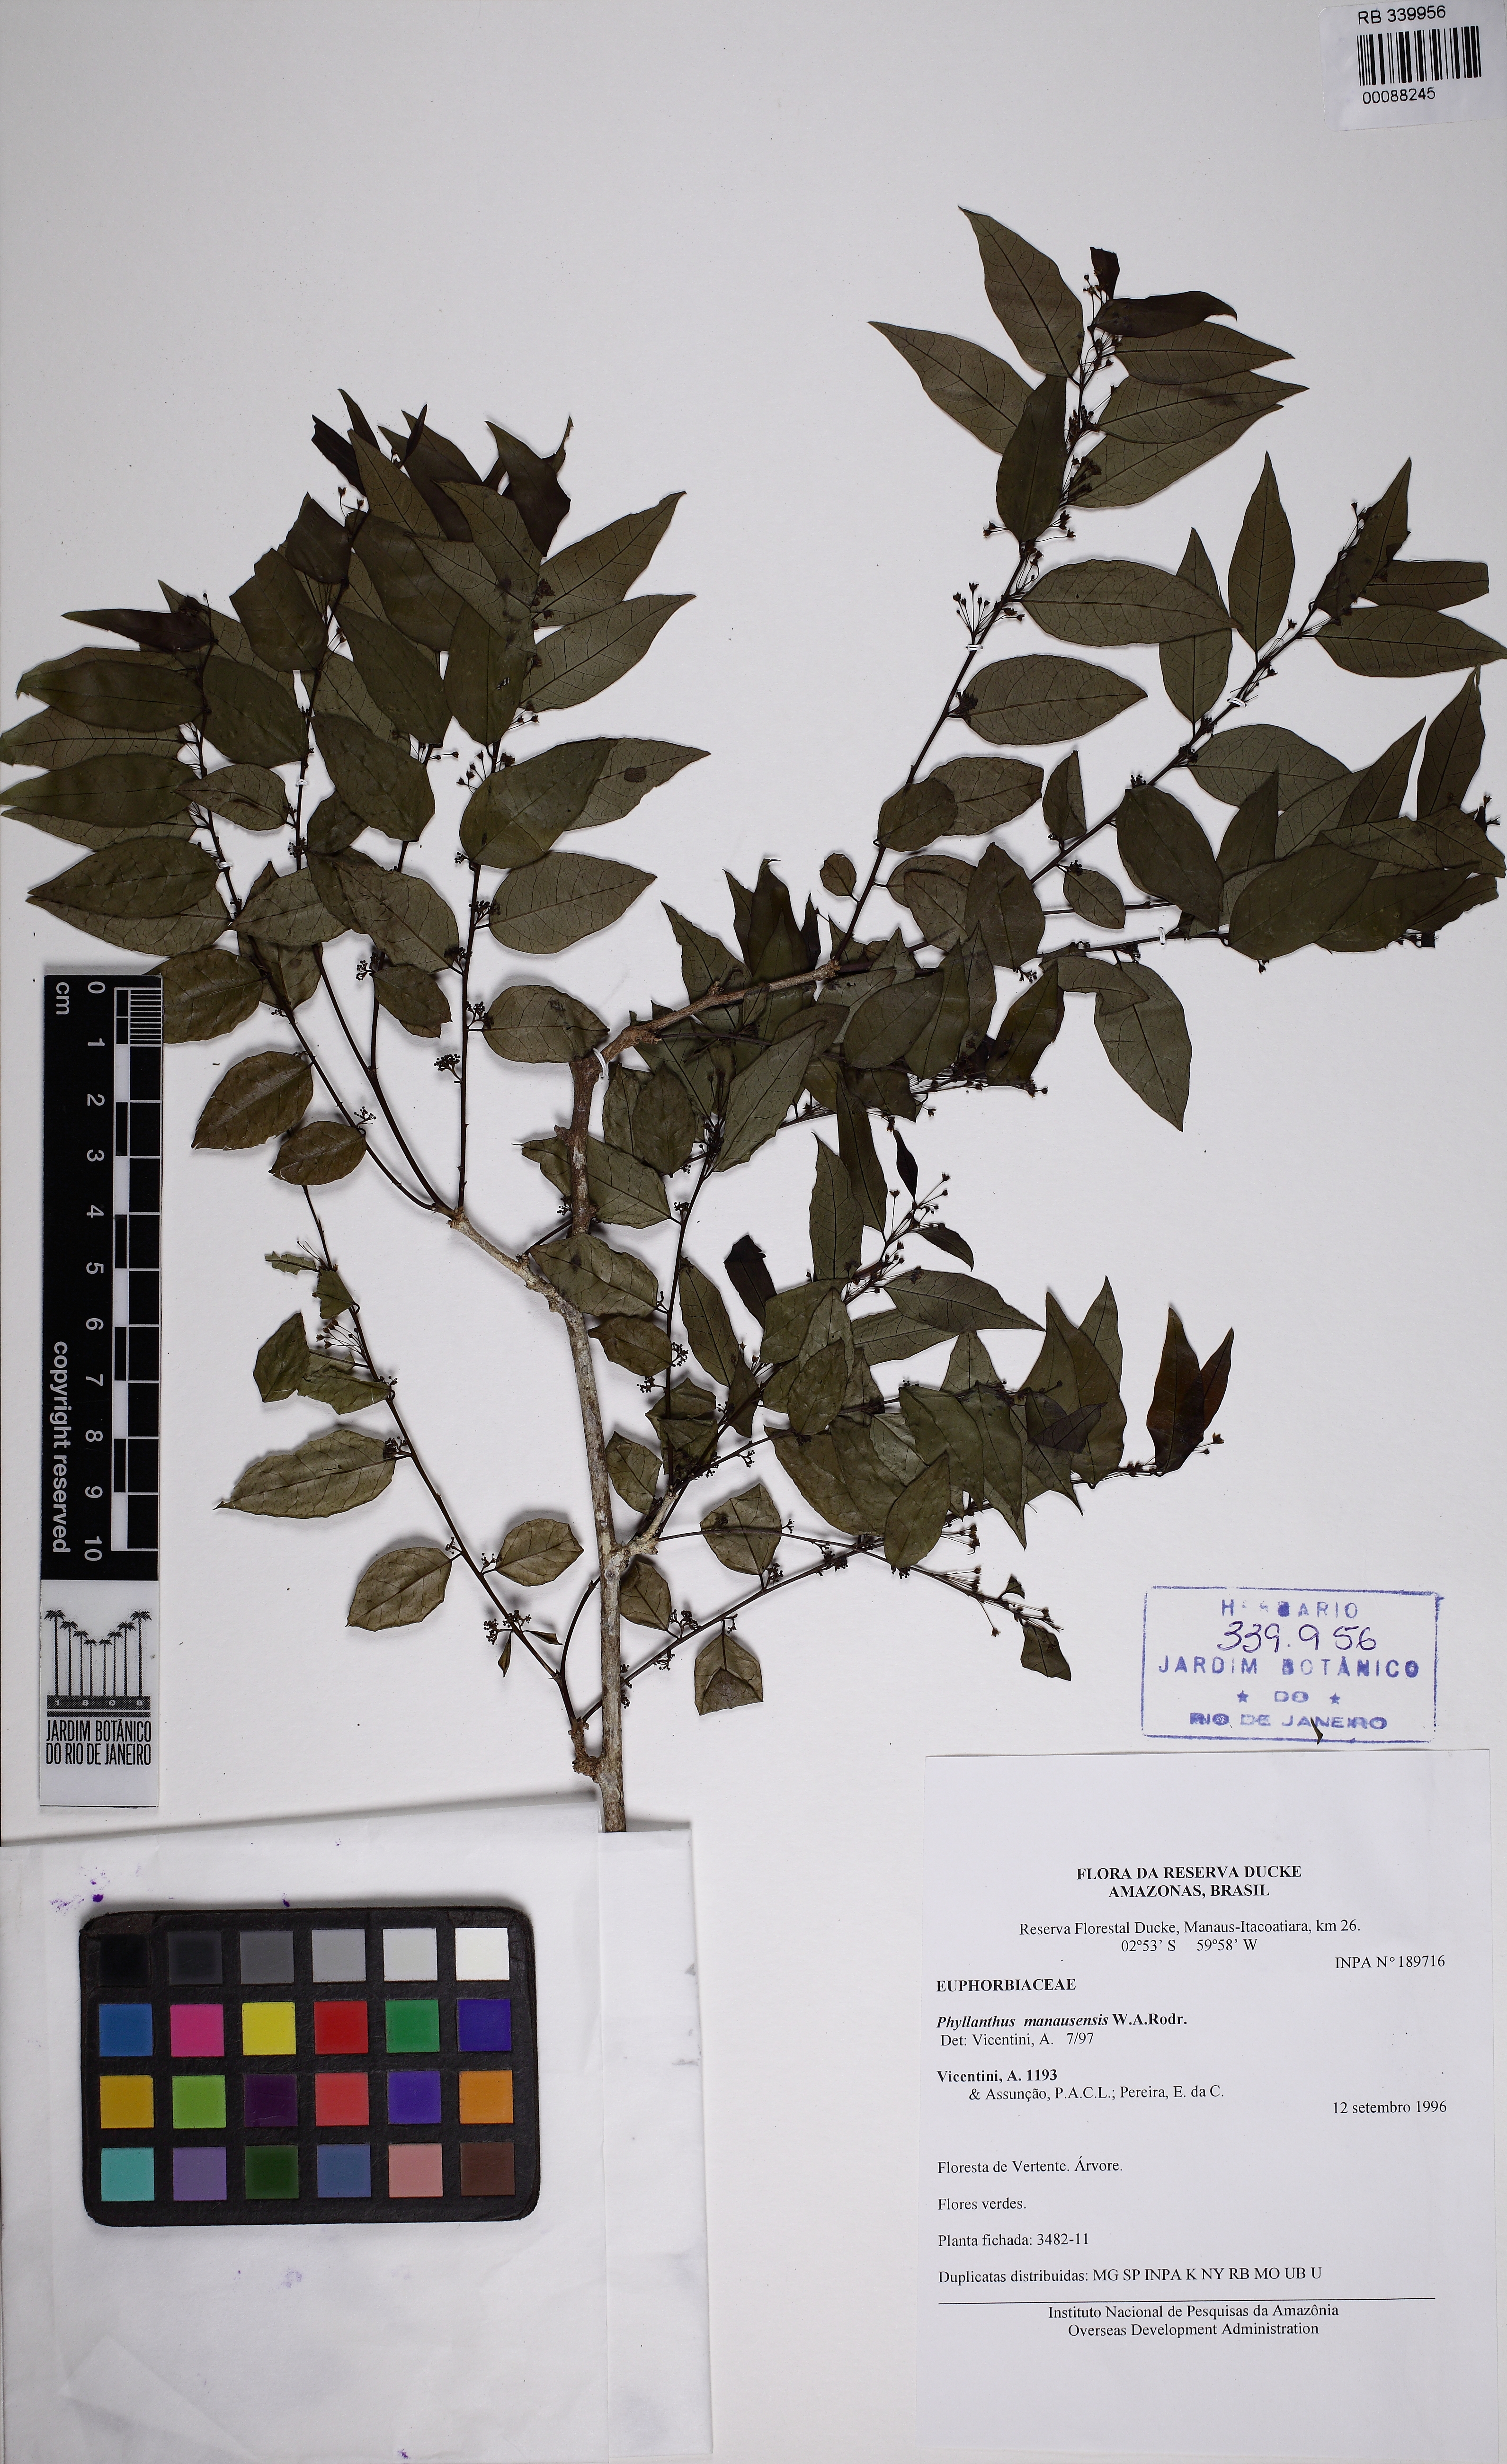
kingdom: Plantae
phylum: Tracheophyta
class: Magnoliopsida
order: Malpighiales
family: Phyllanthaceae
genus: Phyllanthus
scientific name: Phyllanthus madeirensis
